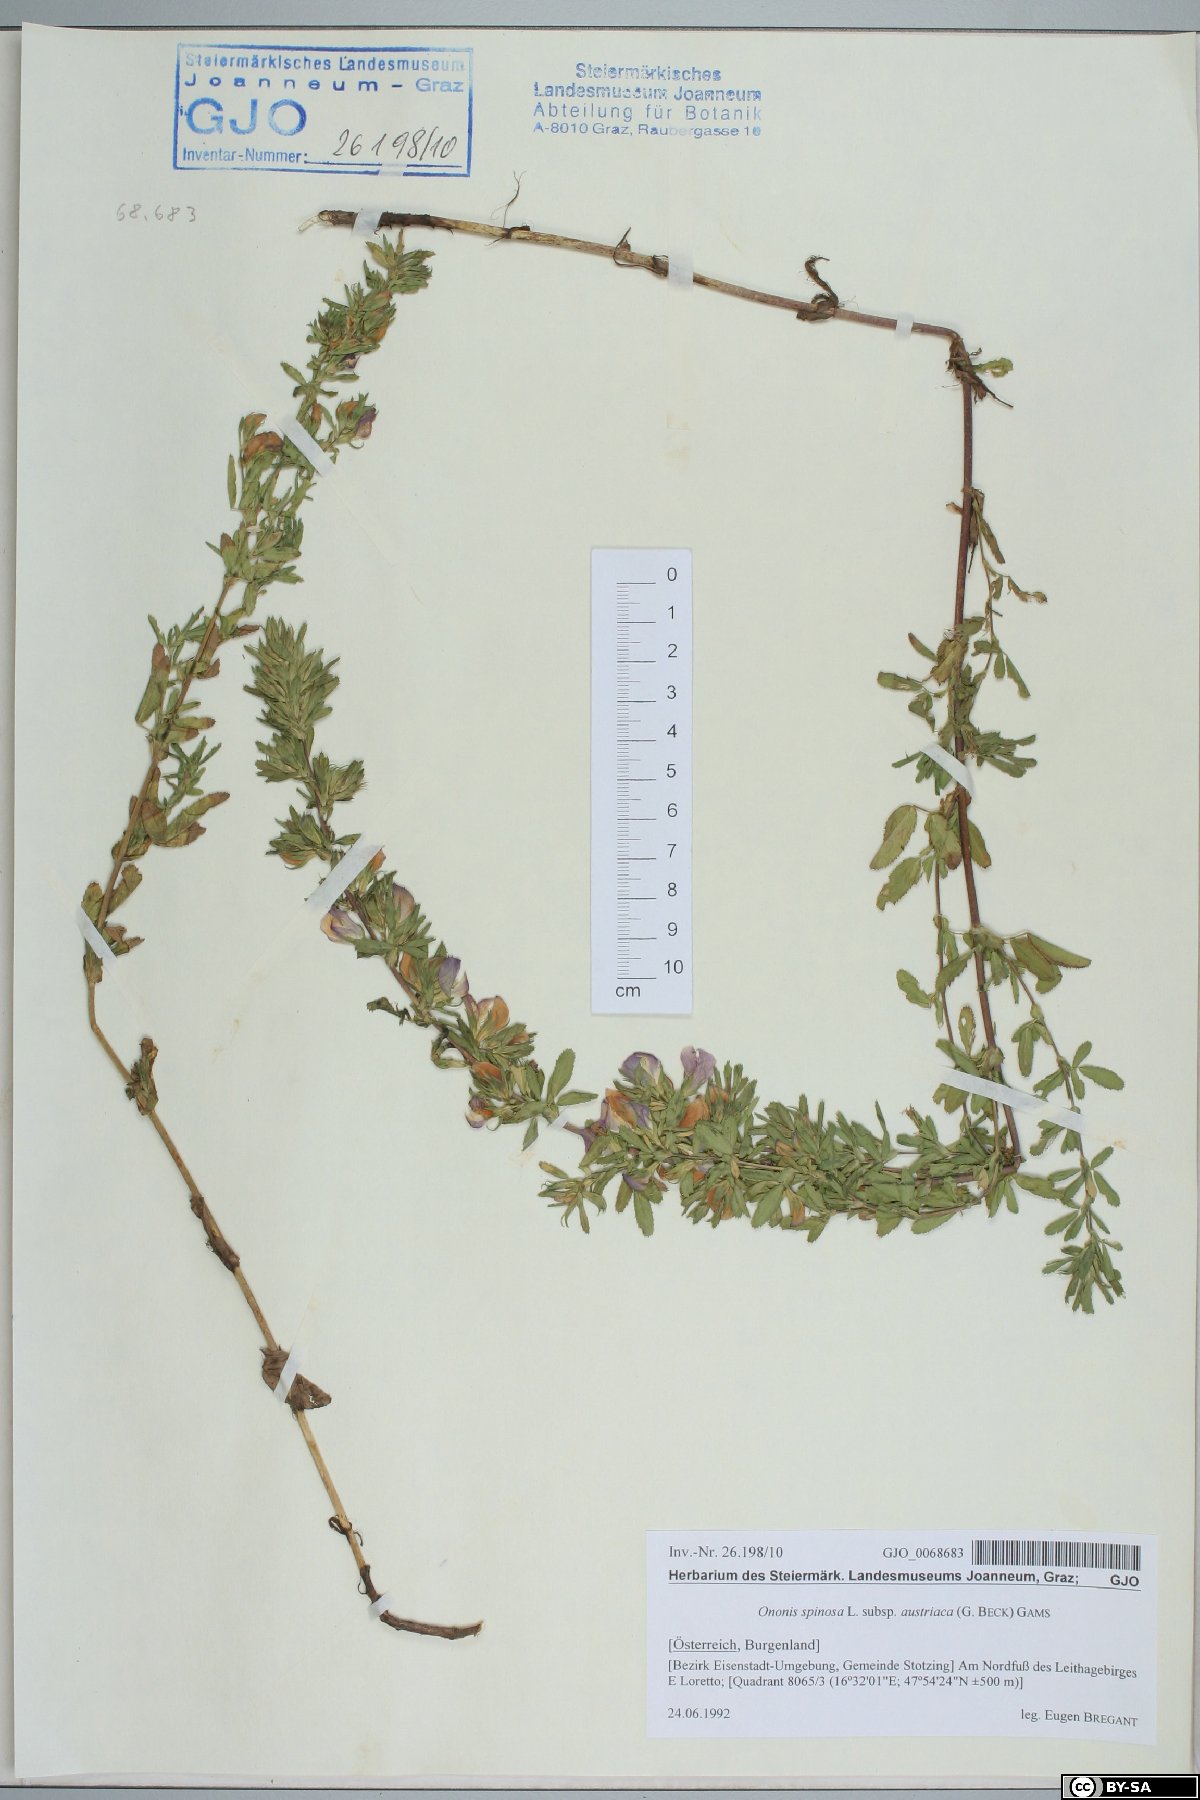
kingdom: Plantae
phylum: Tracheophyta
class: Magnoliopsida
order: Fabales
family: Fabaceae
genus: Ononis
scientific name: Ononis spinosa
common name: Spiny restharrow
